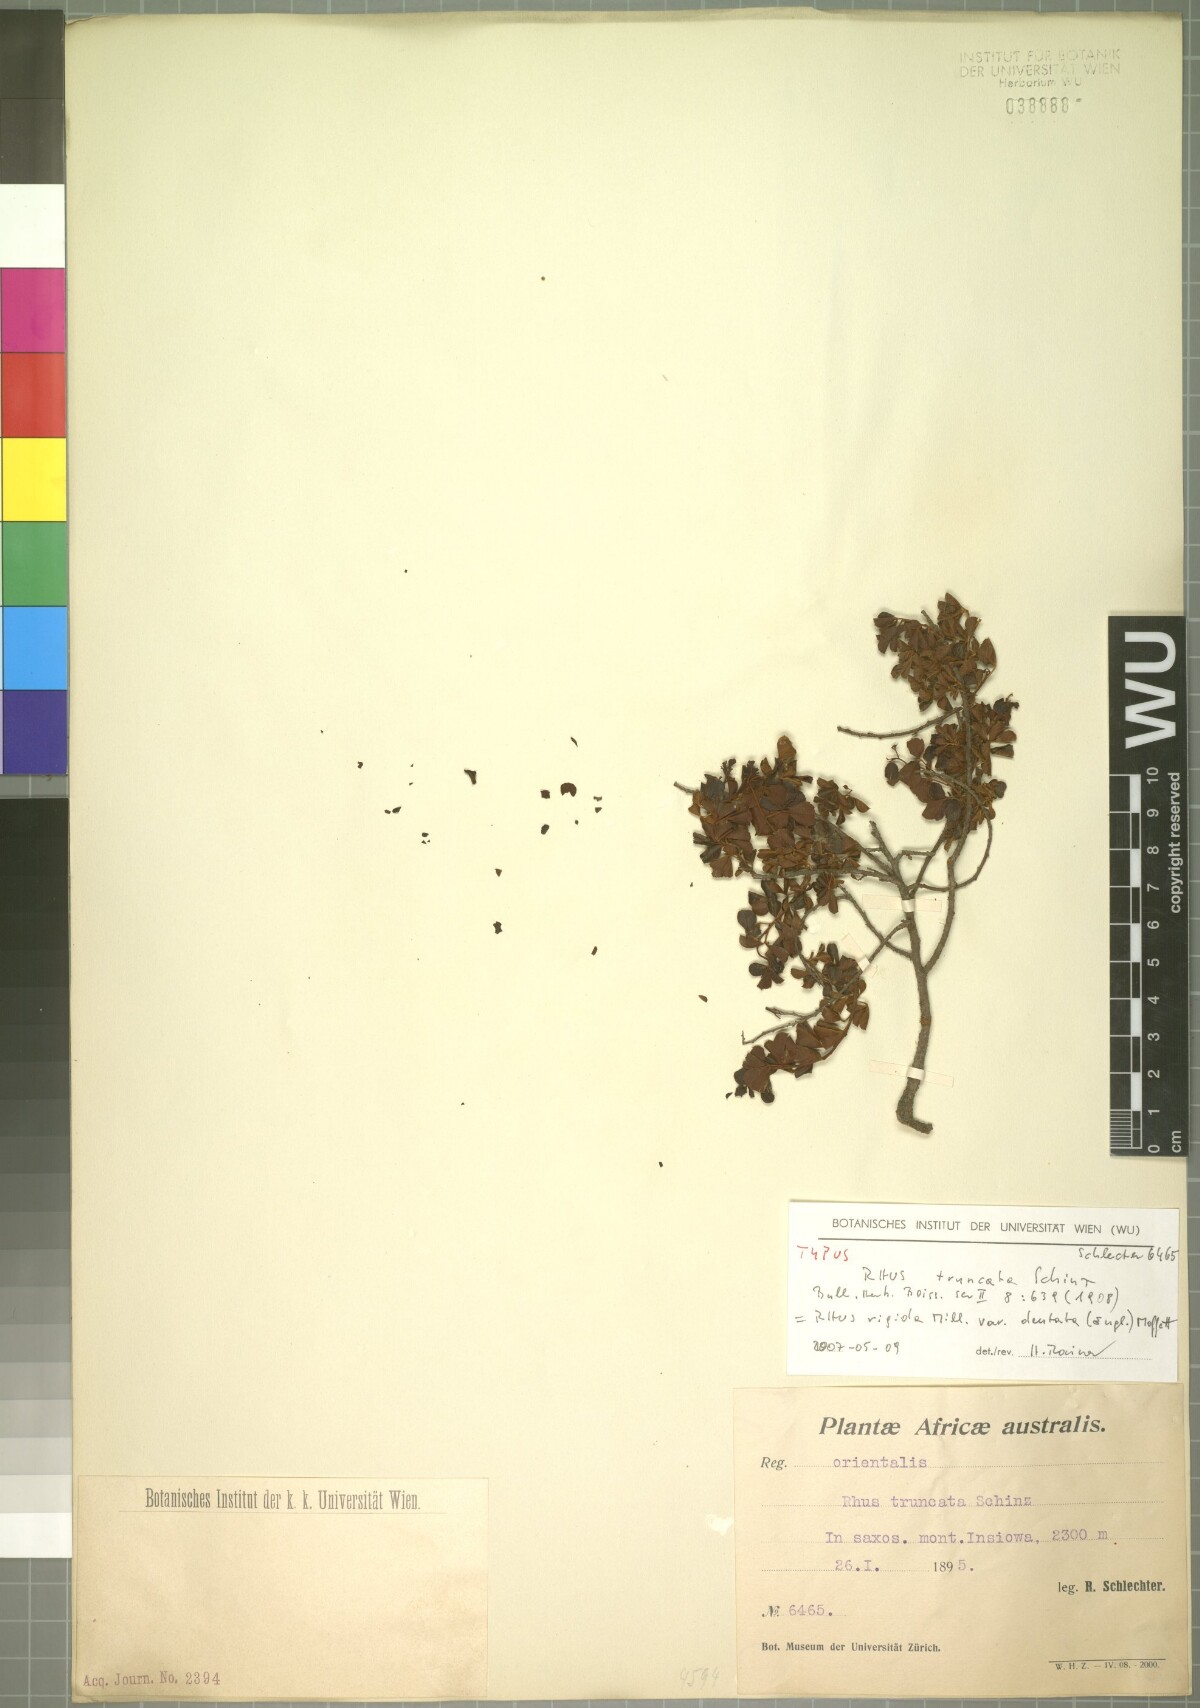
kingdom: Plantae
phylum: Tracheophyta
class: Magnoliopsida
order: Sapindales
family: Anacardiaceae
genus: Searsia
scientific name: Searsia rigida
